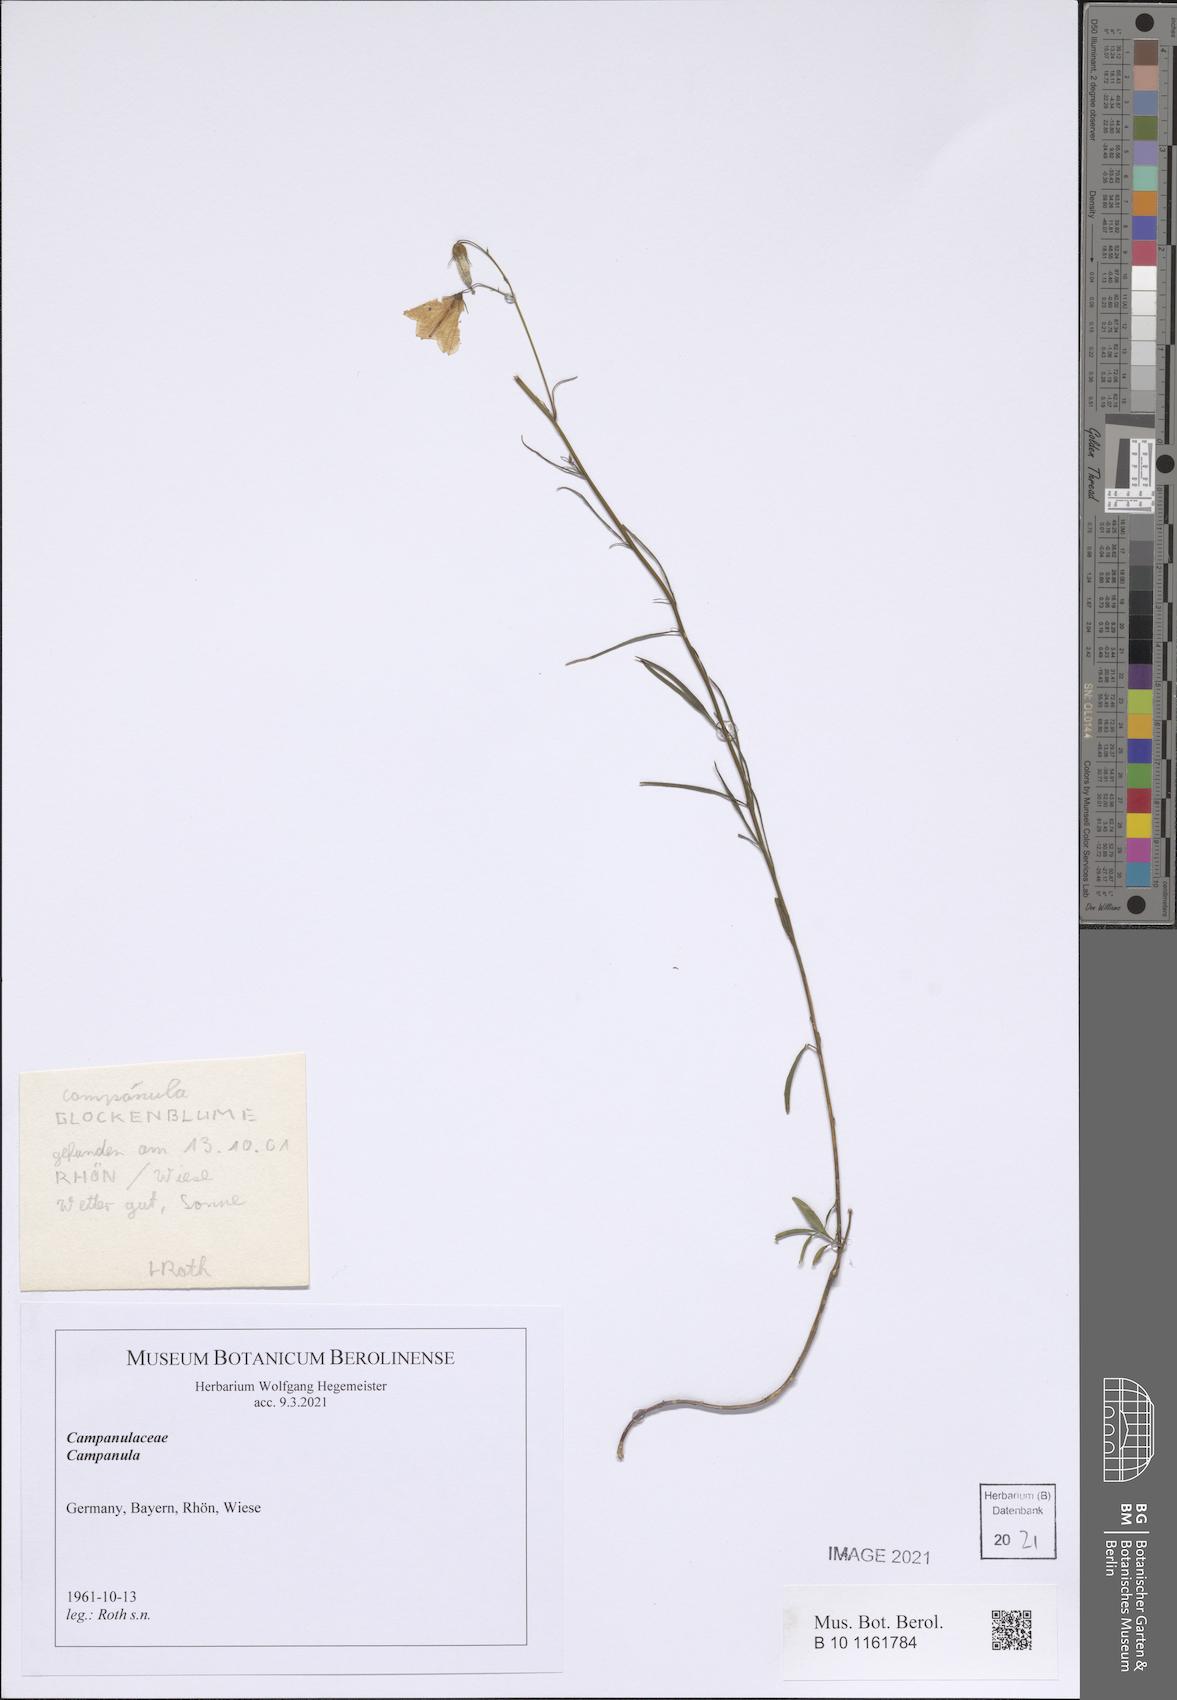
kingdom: Plantae
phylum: Tracheophyta
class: Magnoliopsida
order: Asterales
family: Campanulaceae
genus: Campanula
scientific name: Campanula
